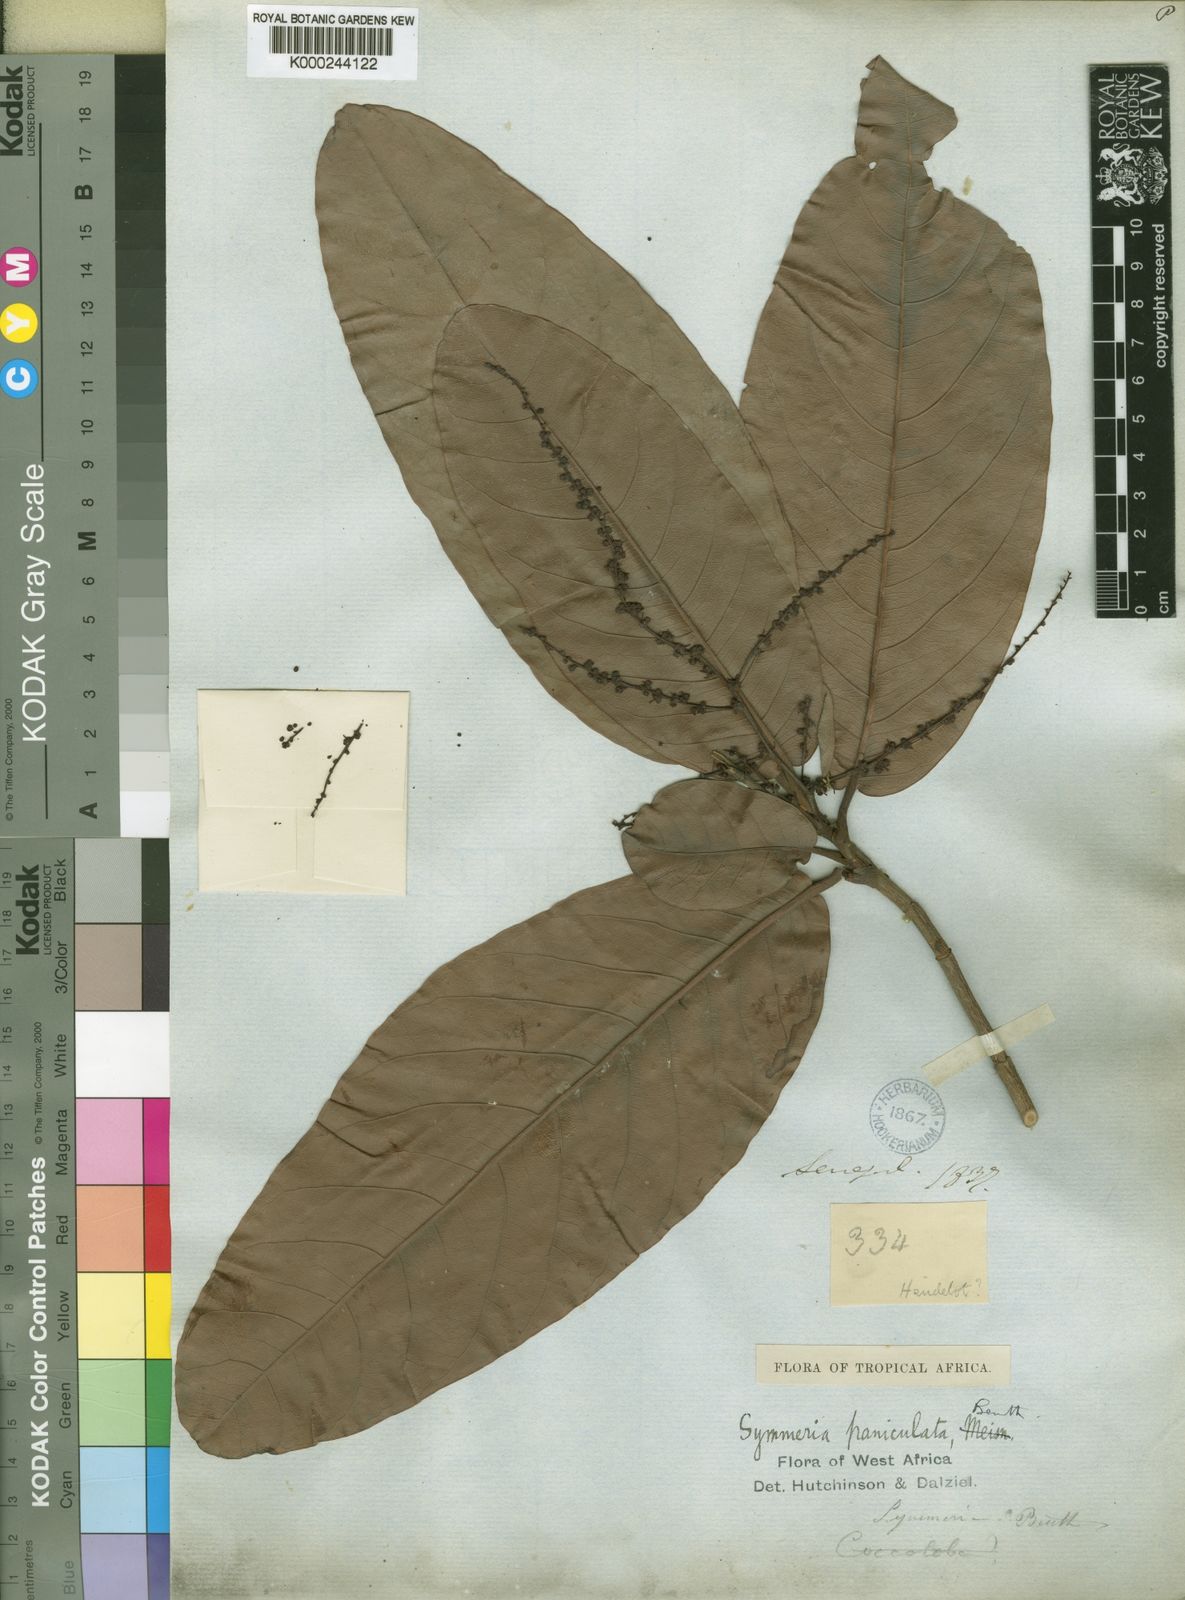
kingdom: Plantae
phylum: Tracheophyta
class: Magnoliopsida
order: Caryophyllales
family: Polygonaceae
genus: Symmeria
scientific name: Symmeria paniculata
